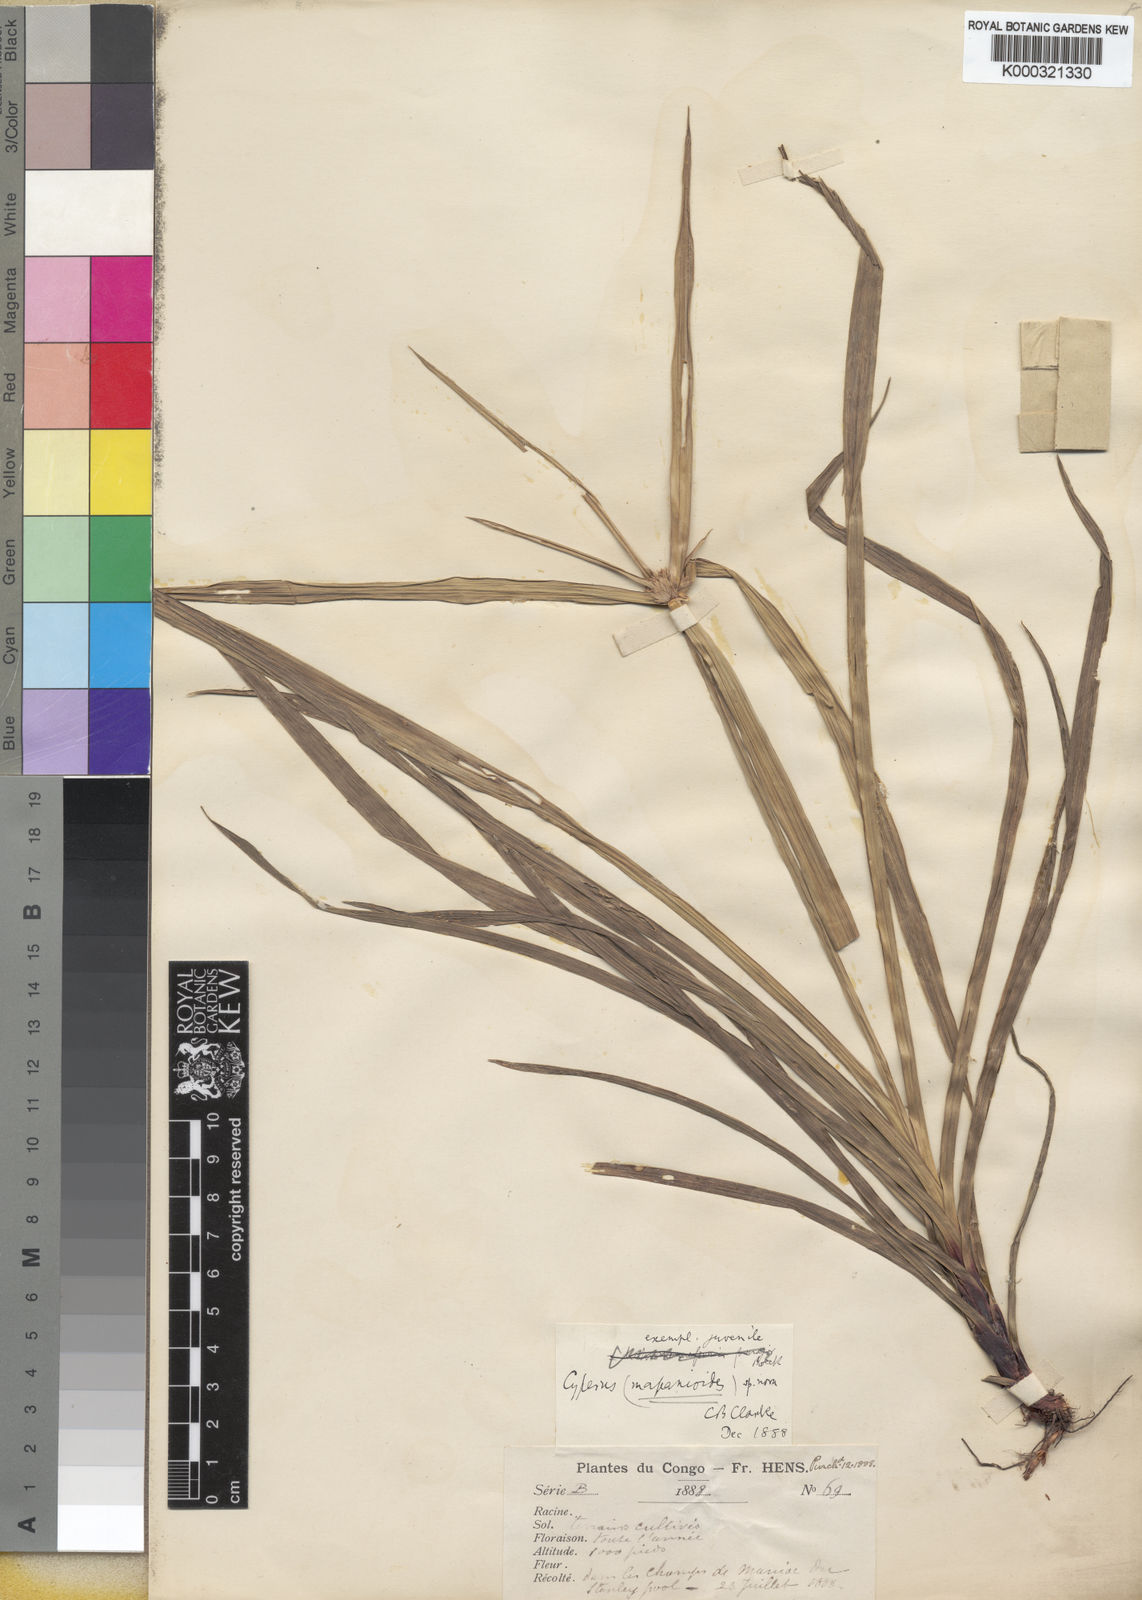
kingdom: Plantae
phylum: Tracheophyta
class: Liliopsida
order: Poales
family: Cyperaceae
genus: Cyperus
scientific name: Cyperus mapanioides
